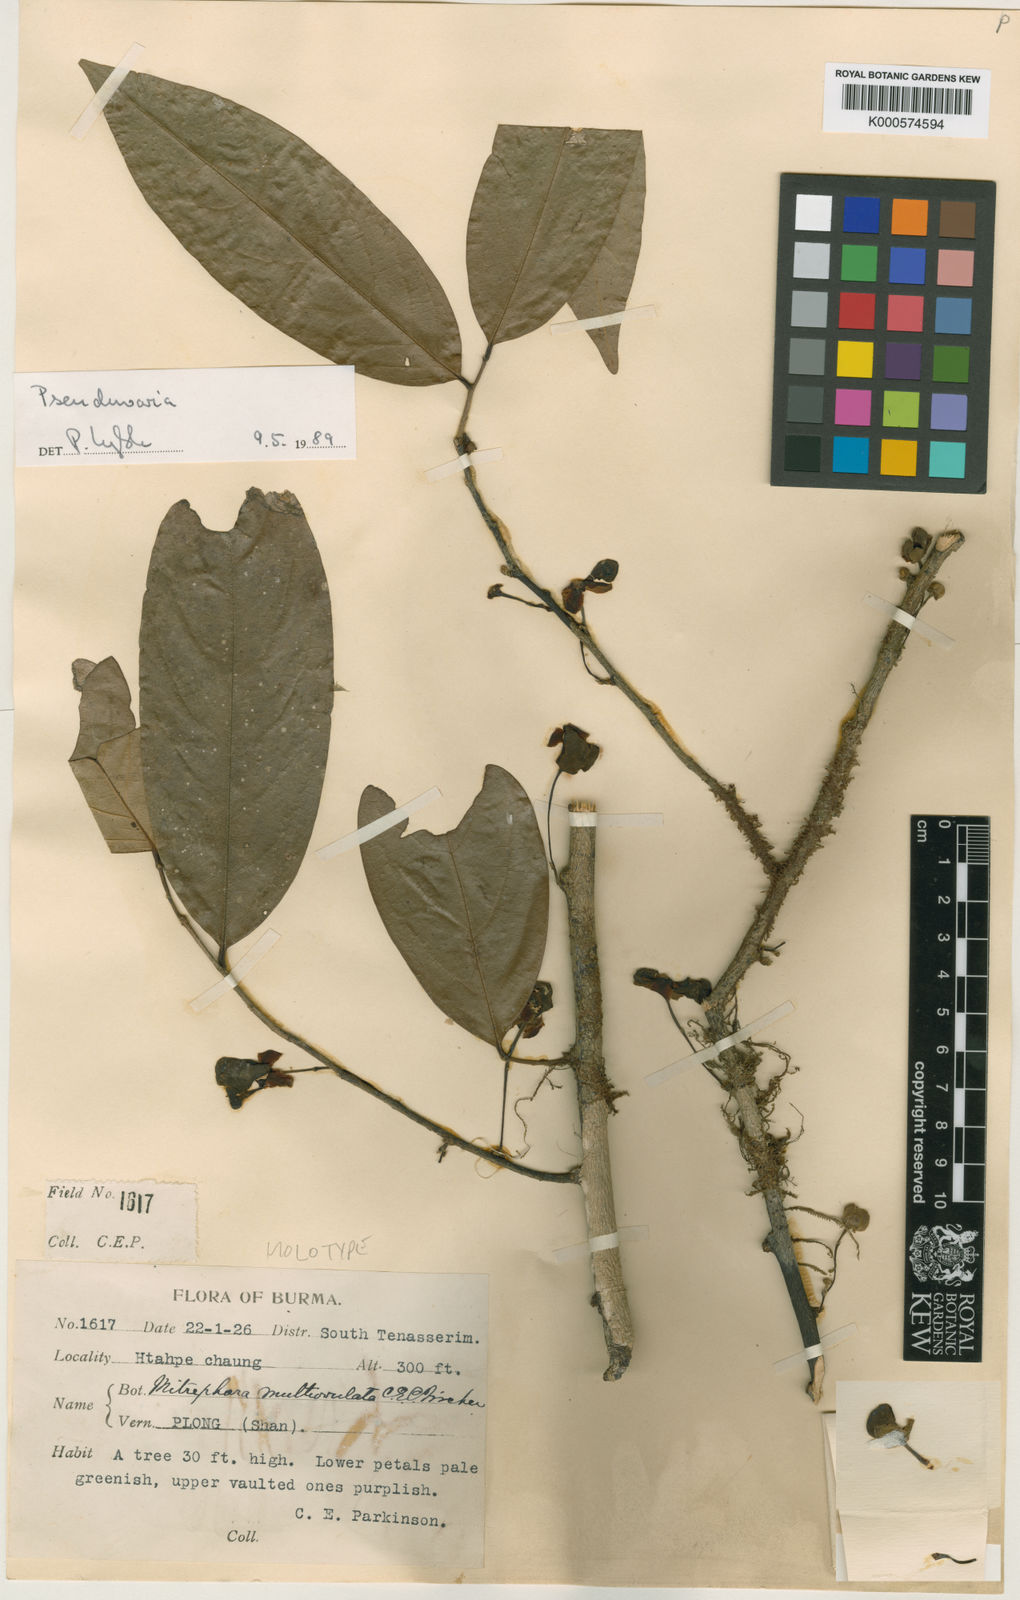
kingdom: Plantae
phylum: Tracheophyta
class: Magnoliopsida
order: Magnoliales
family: Annonaceae
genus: Pseuduvaria
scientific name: Pseuduvaria multiovulata
